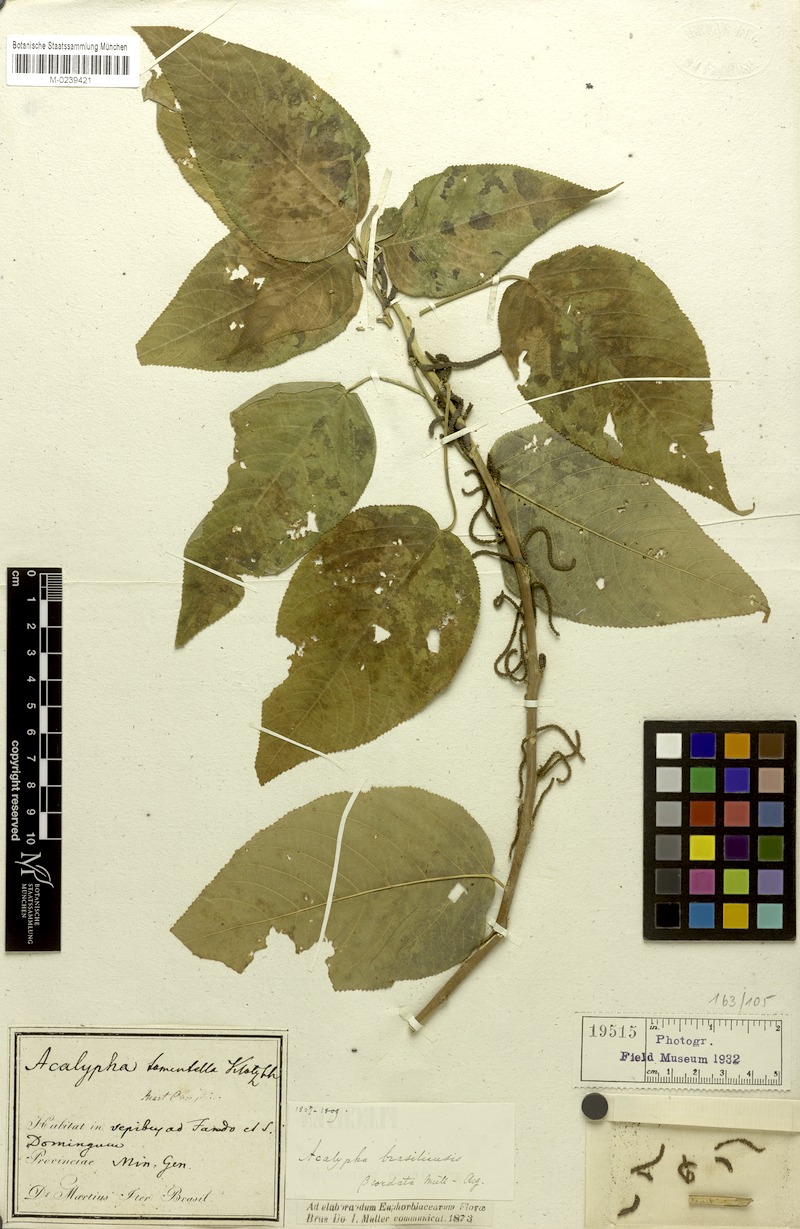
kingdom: Plantae
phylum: Tracheophyta
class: Magnoliopsida
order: Malpighiales
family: Euphorbiaceae
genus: Acalypha
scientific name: Acalypha brasiliensis
